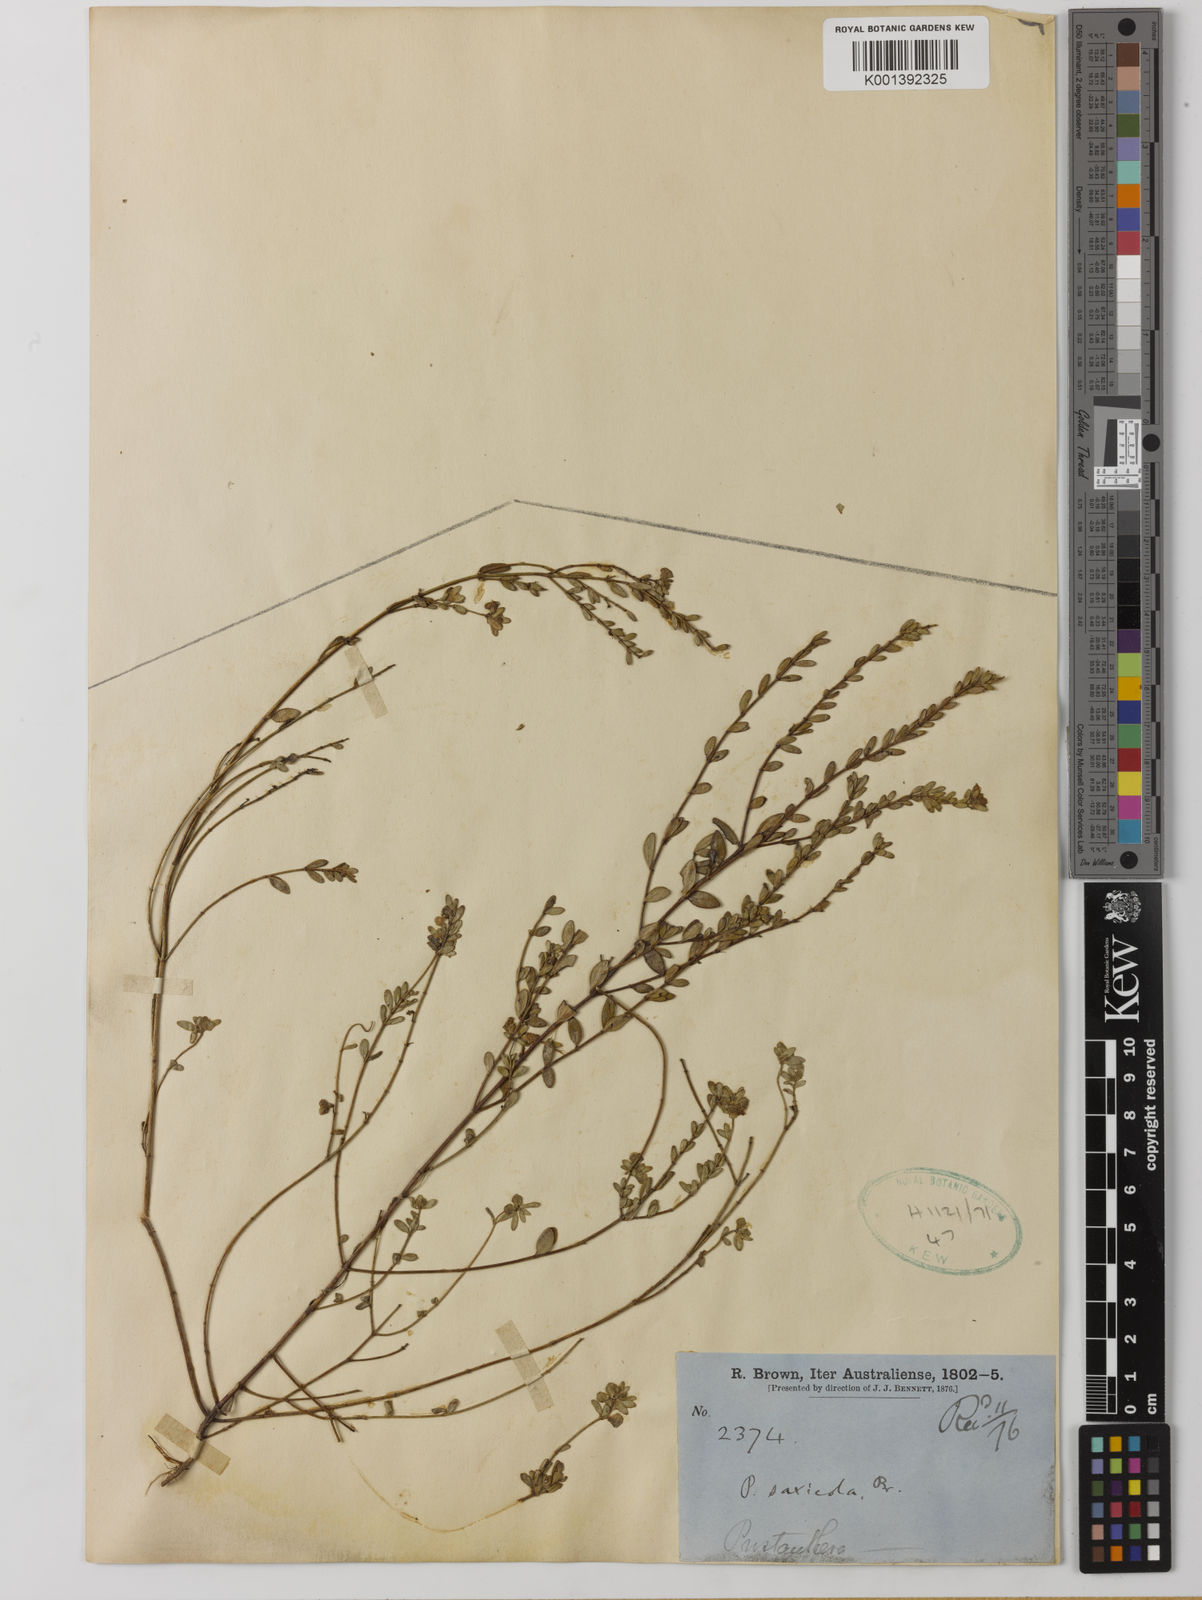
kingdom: Plantae
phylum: Tracheophyta
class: Magnoliopsida
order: Lamiales
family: Lamiaceae
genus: Prostanthera
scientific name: Prostanthera saxicola
